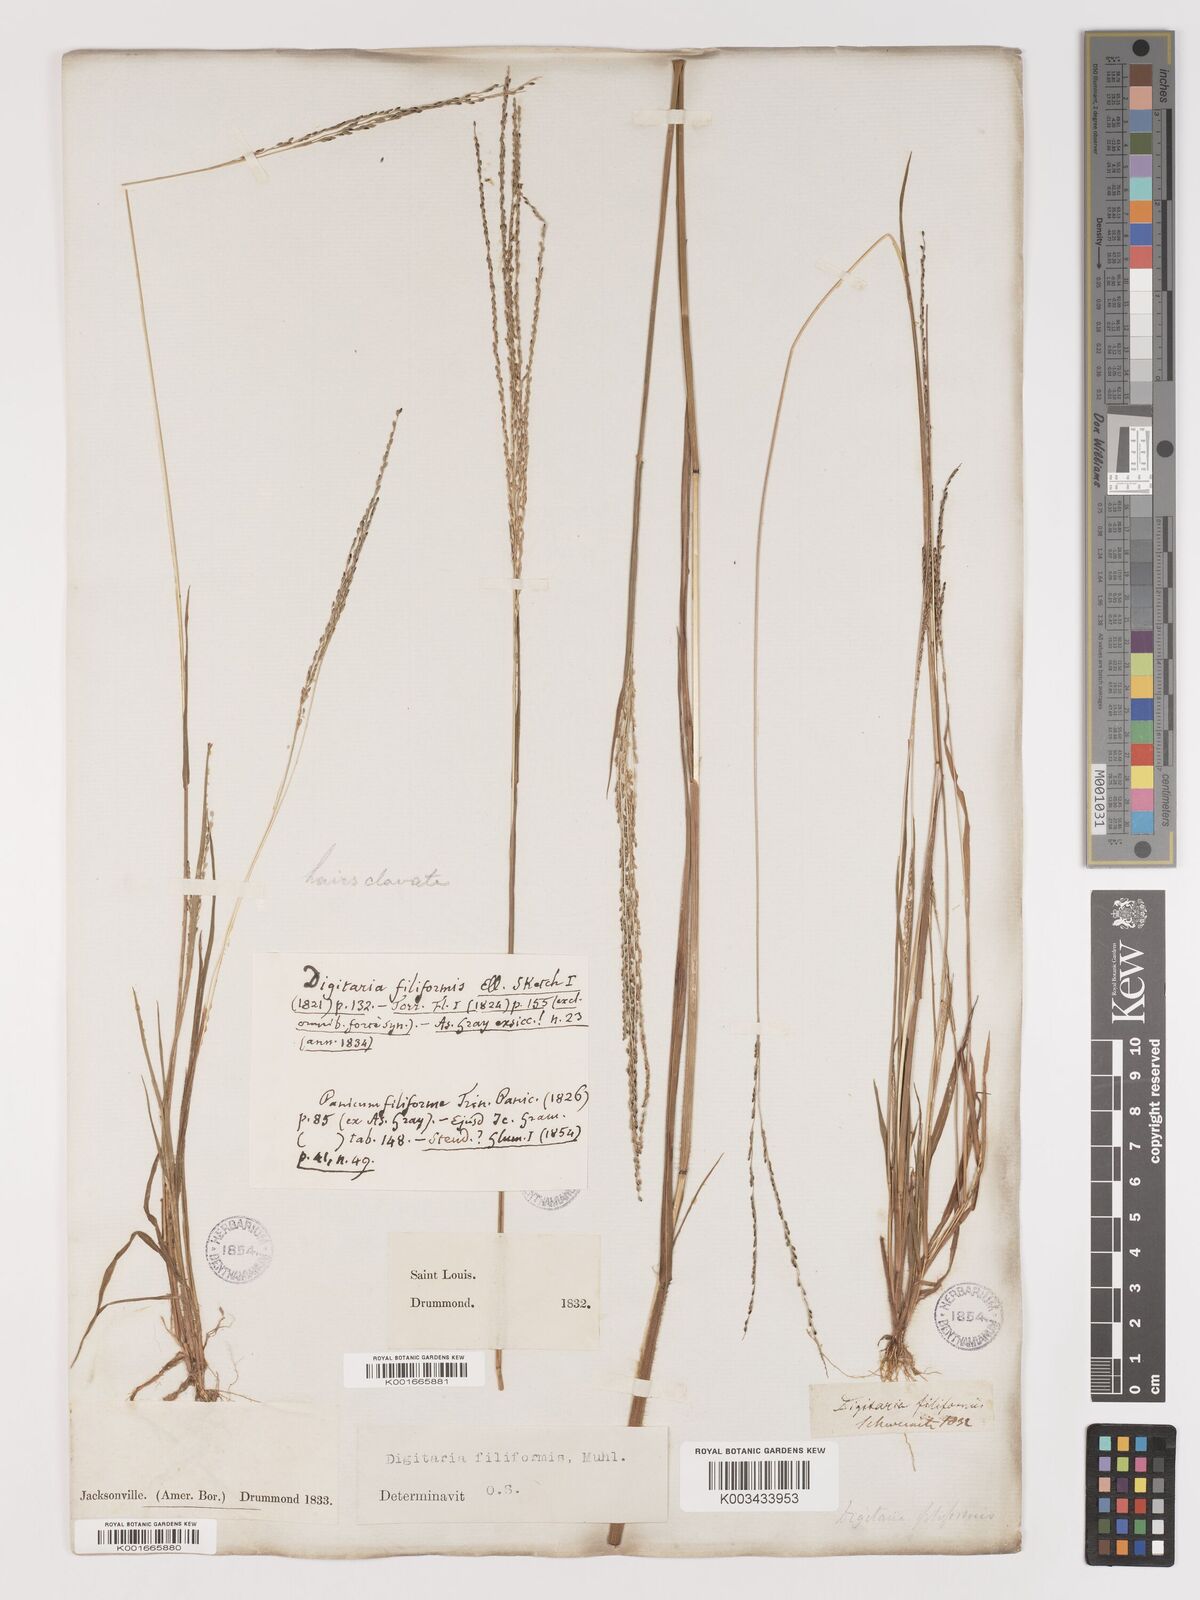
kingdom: Plantae
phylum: Tracheophyta
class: Liliopsida
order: Poales
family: Poaceae
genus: Digitaria
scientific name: Digitaria filiformis
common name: Slender crabgrass
